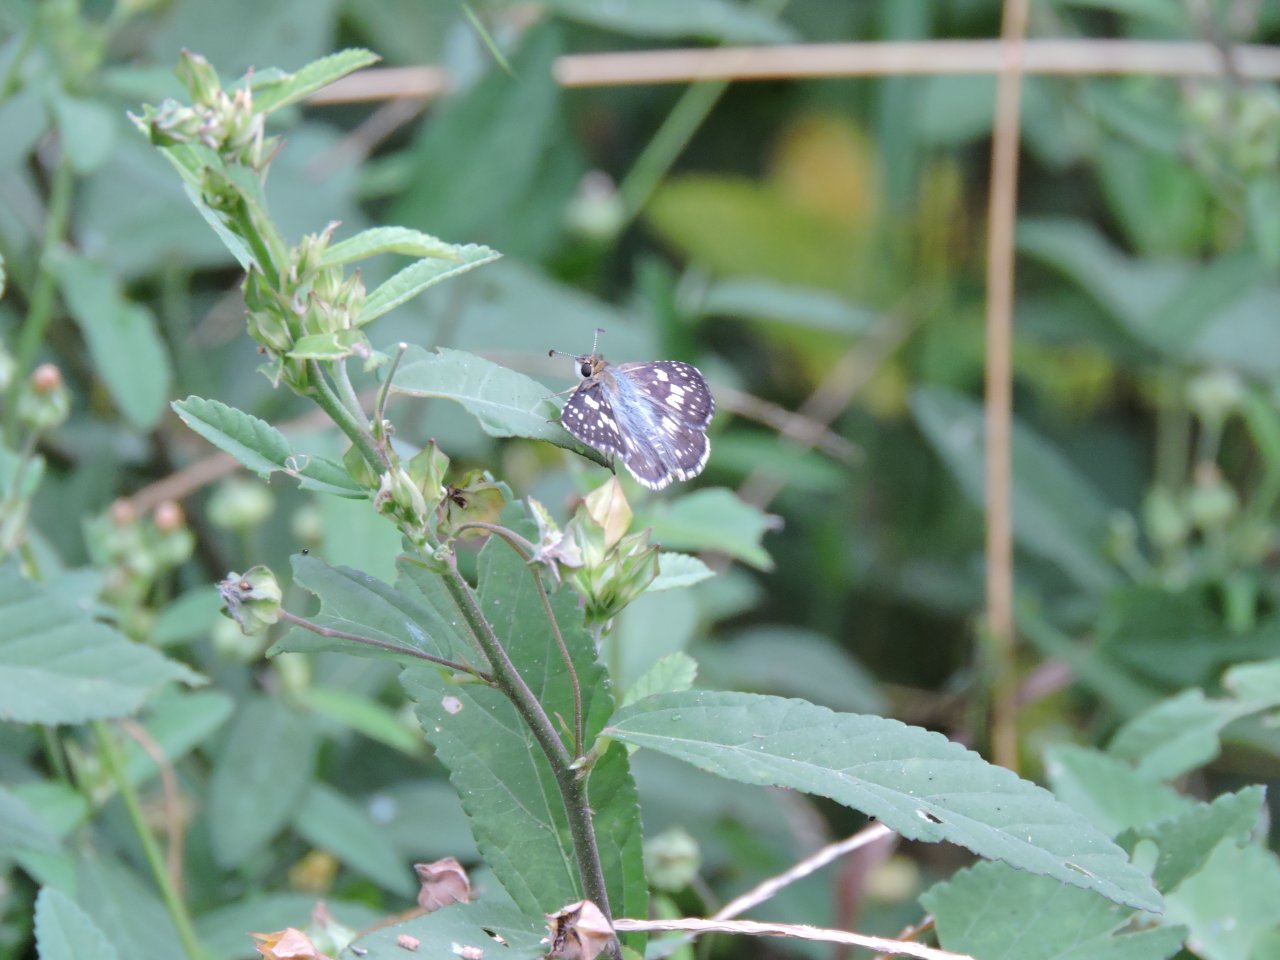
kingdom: Animalia
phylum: Arthropoda
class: Insecta
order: Lepidoptera
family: Hesperiidae
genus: Pyrgus
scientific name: Pyrgus
